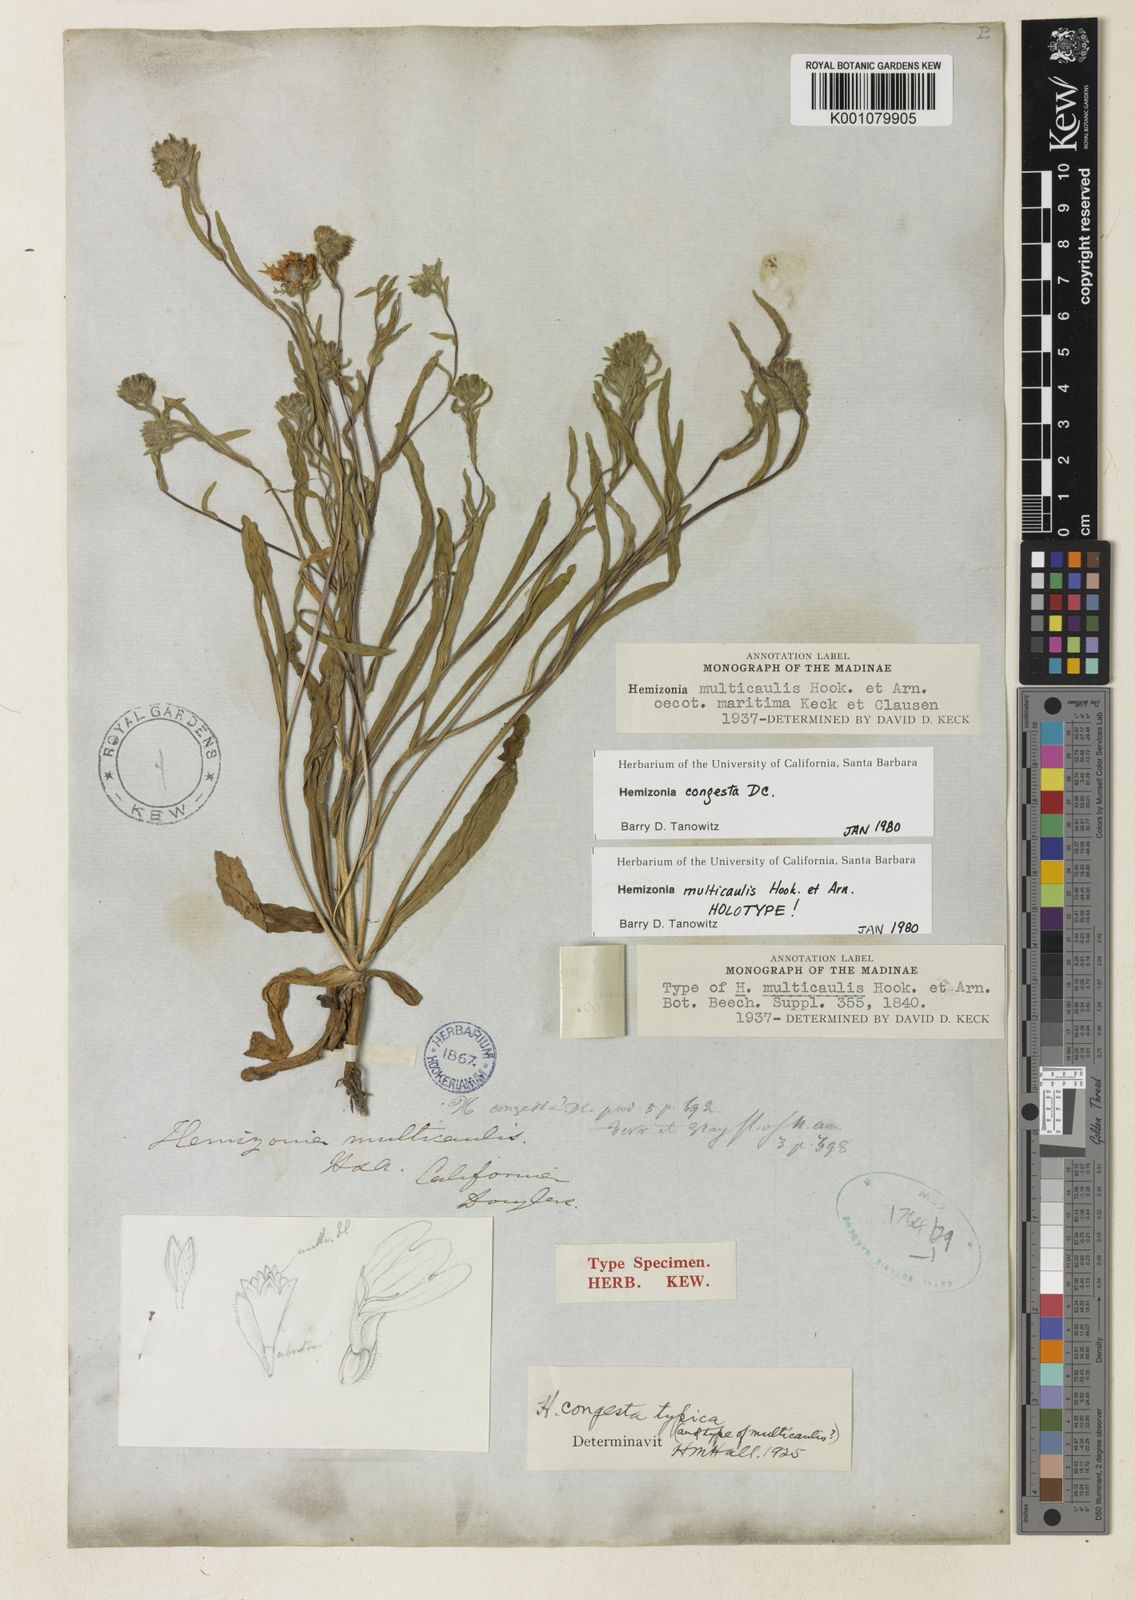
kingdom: Plantae
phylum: Tracheophyta
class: Magnoliopsida
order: Asterales
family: Asteraceae
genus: Hemizonia
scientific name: Hemizonia congesta
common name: Hayfield tarweed
